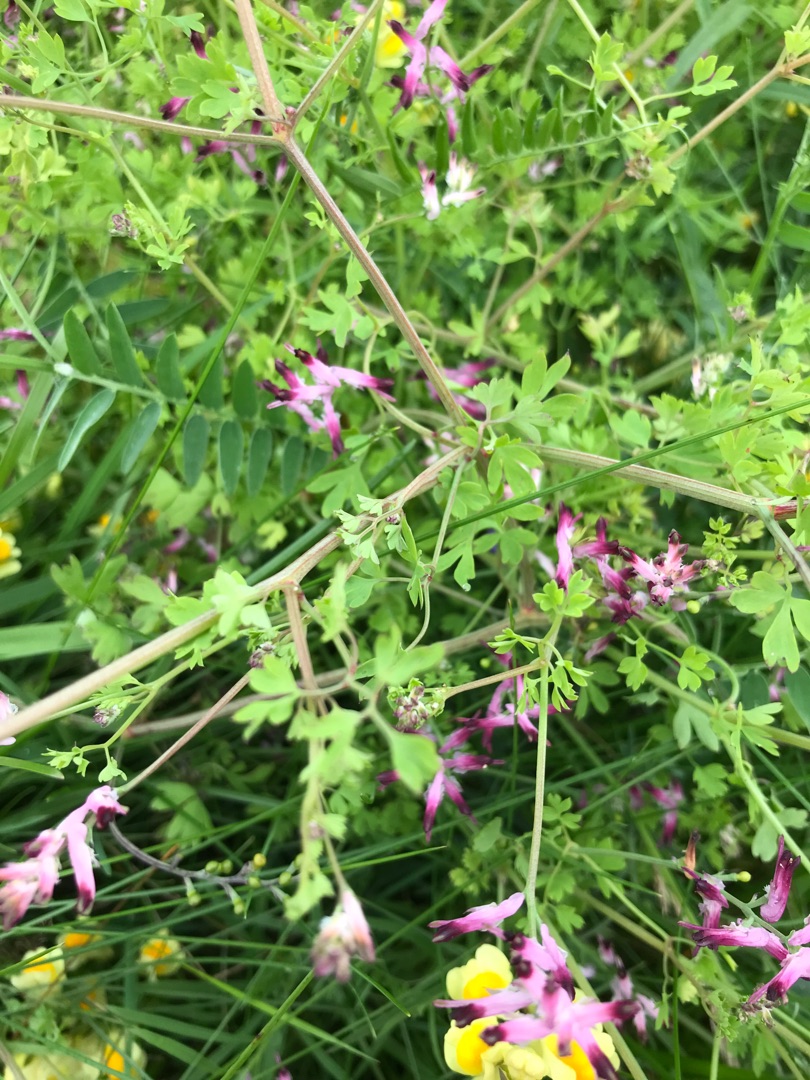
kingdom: Plantae
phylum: Tracheophyta
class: Magnoliopsida
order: Ranunculales
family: Papaveraceae
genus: Fumaria
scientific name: Fumaria muralis
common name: Mur-jordrøg
